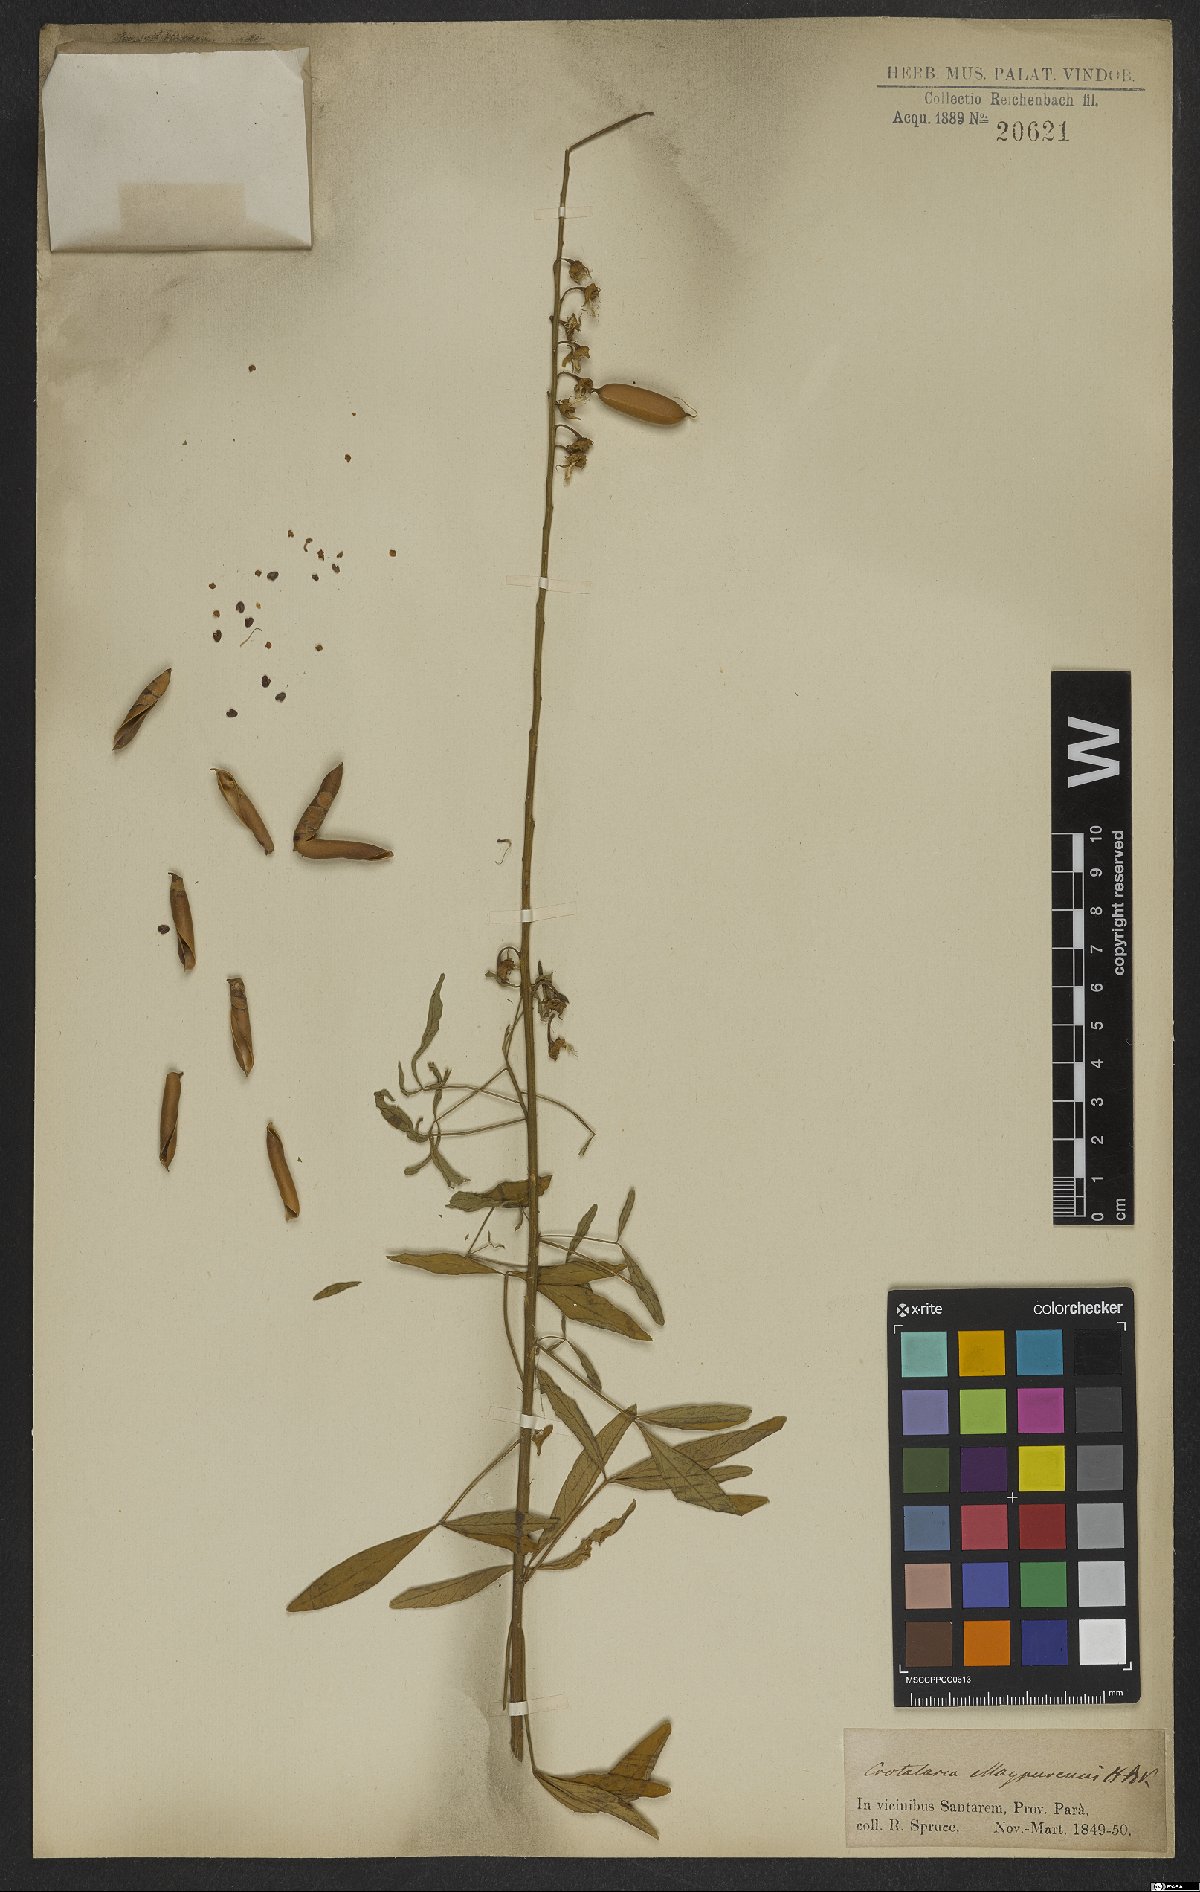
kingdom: Plantae
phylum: Tracheophyta
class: Magnoliopsida
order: Fabales
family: Fabaceae
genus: Crotalaria
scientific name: Crotalaria maypurensis
